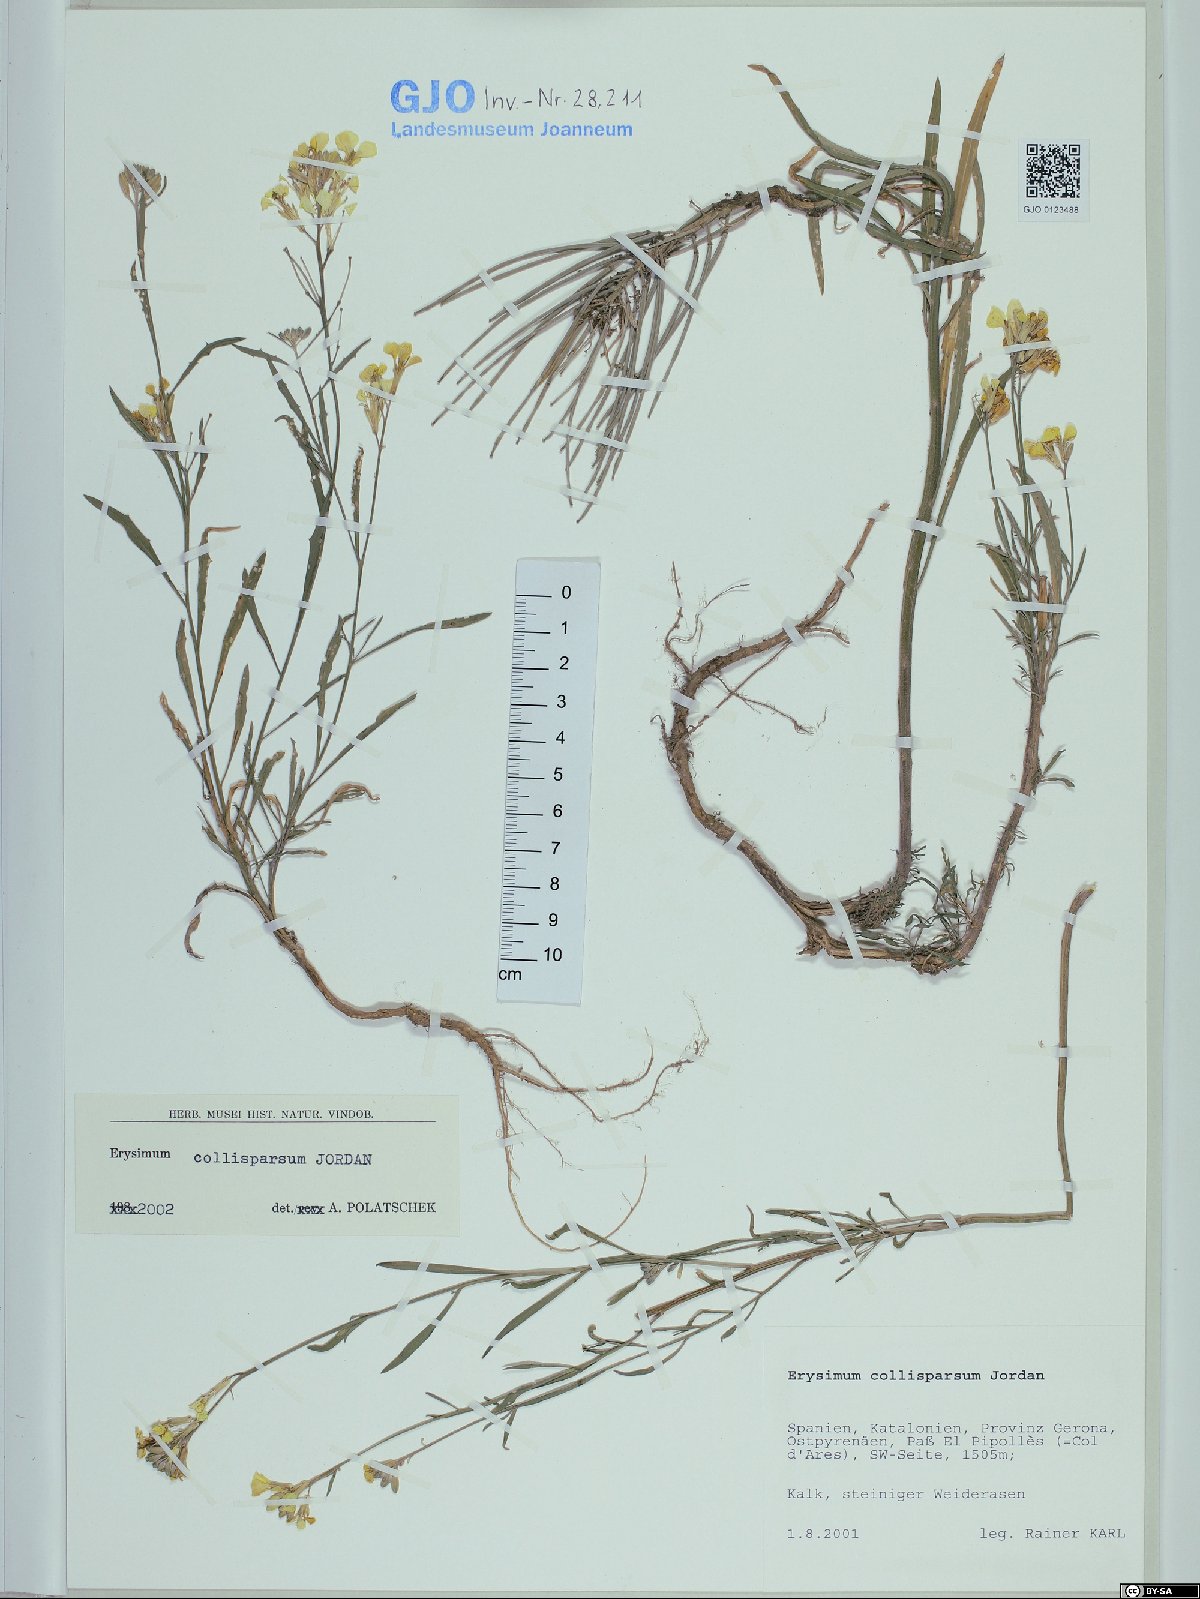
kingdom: Plantae
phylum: Tracheophyta
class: Magnoliopsida
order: Brassicales
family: Brassicaceae
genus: Erysimum
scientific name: Erysimum collisparsum
